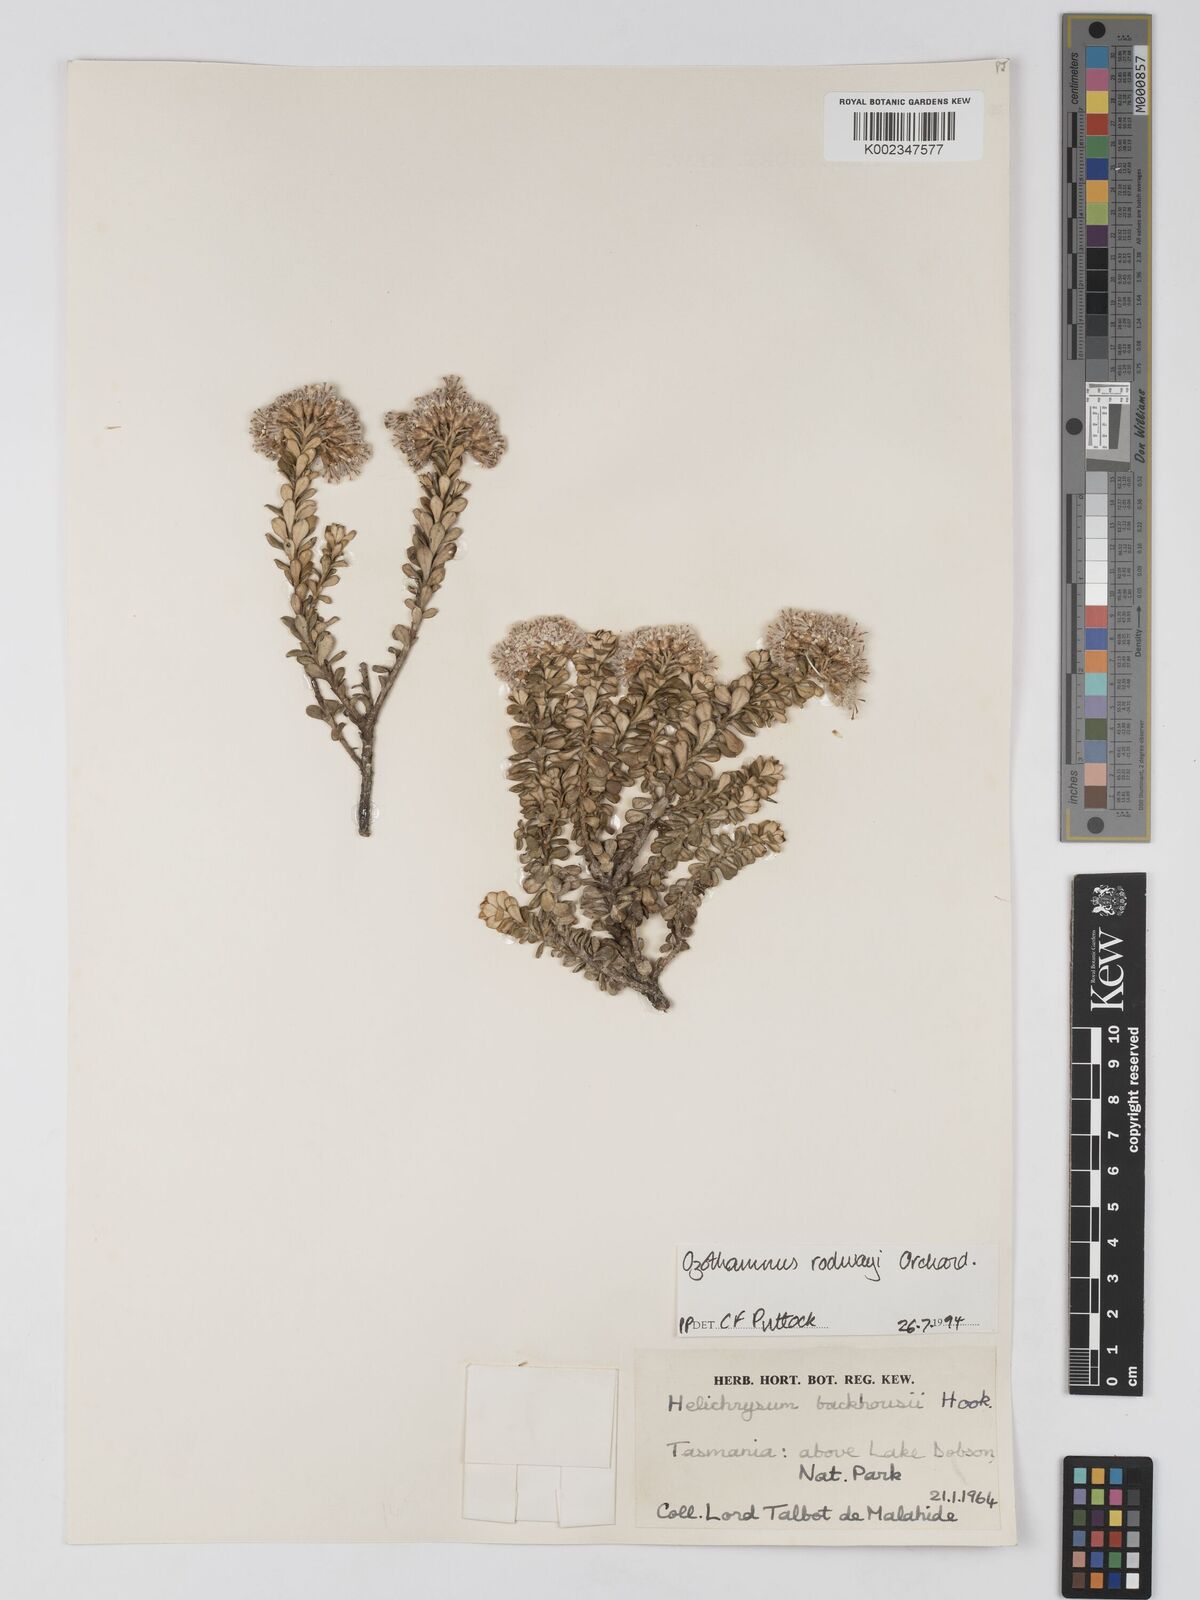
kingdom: Plantae
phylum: Tracheophyta
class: Magnoliopsida
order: Asterales
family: Asteraceae
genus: Ozothamnus
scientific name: Ozothamnus rodwayi
